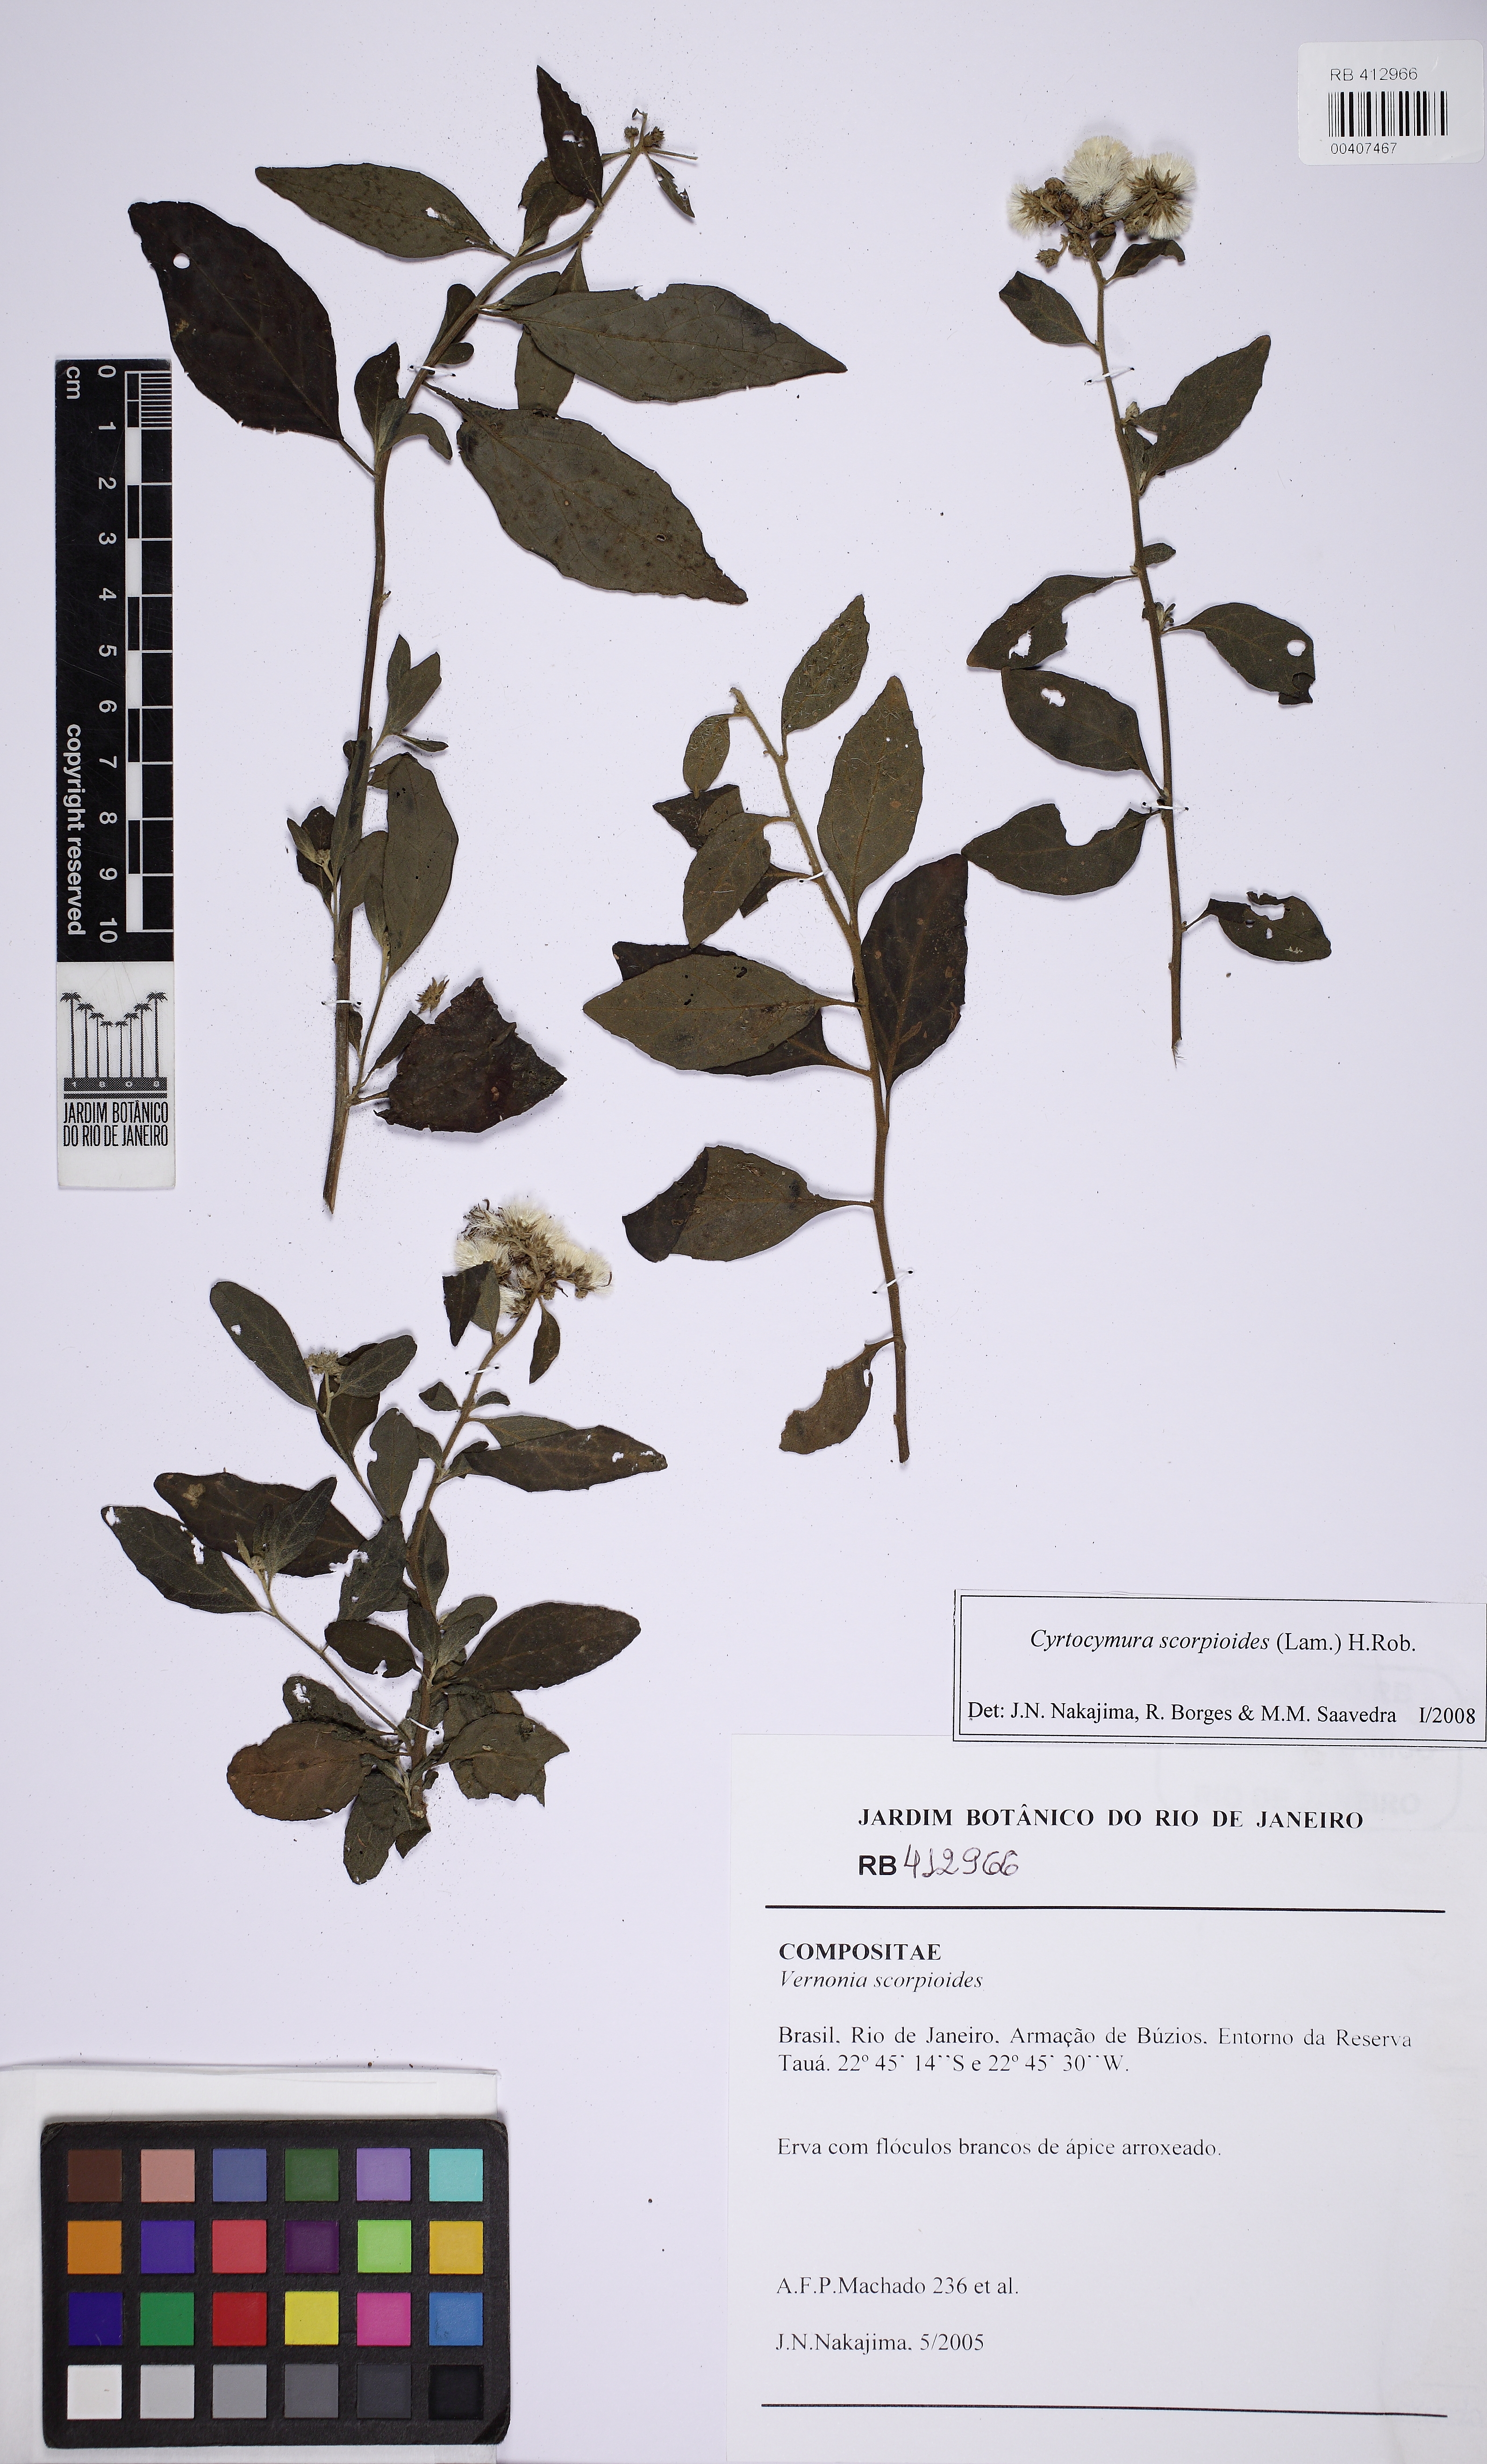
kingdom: Plantae
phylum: Tracheophyta
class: Magnoliopsida
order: Asterales
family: Asteraceae
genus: Cyrtocymura
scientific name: Cyrtocymura scorpioides
